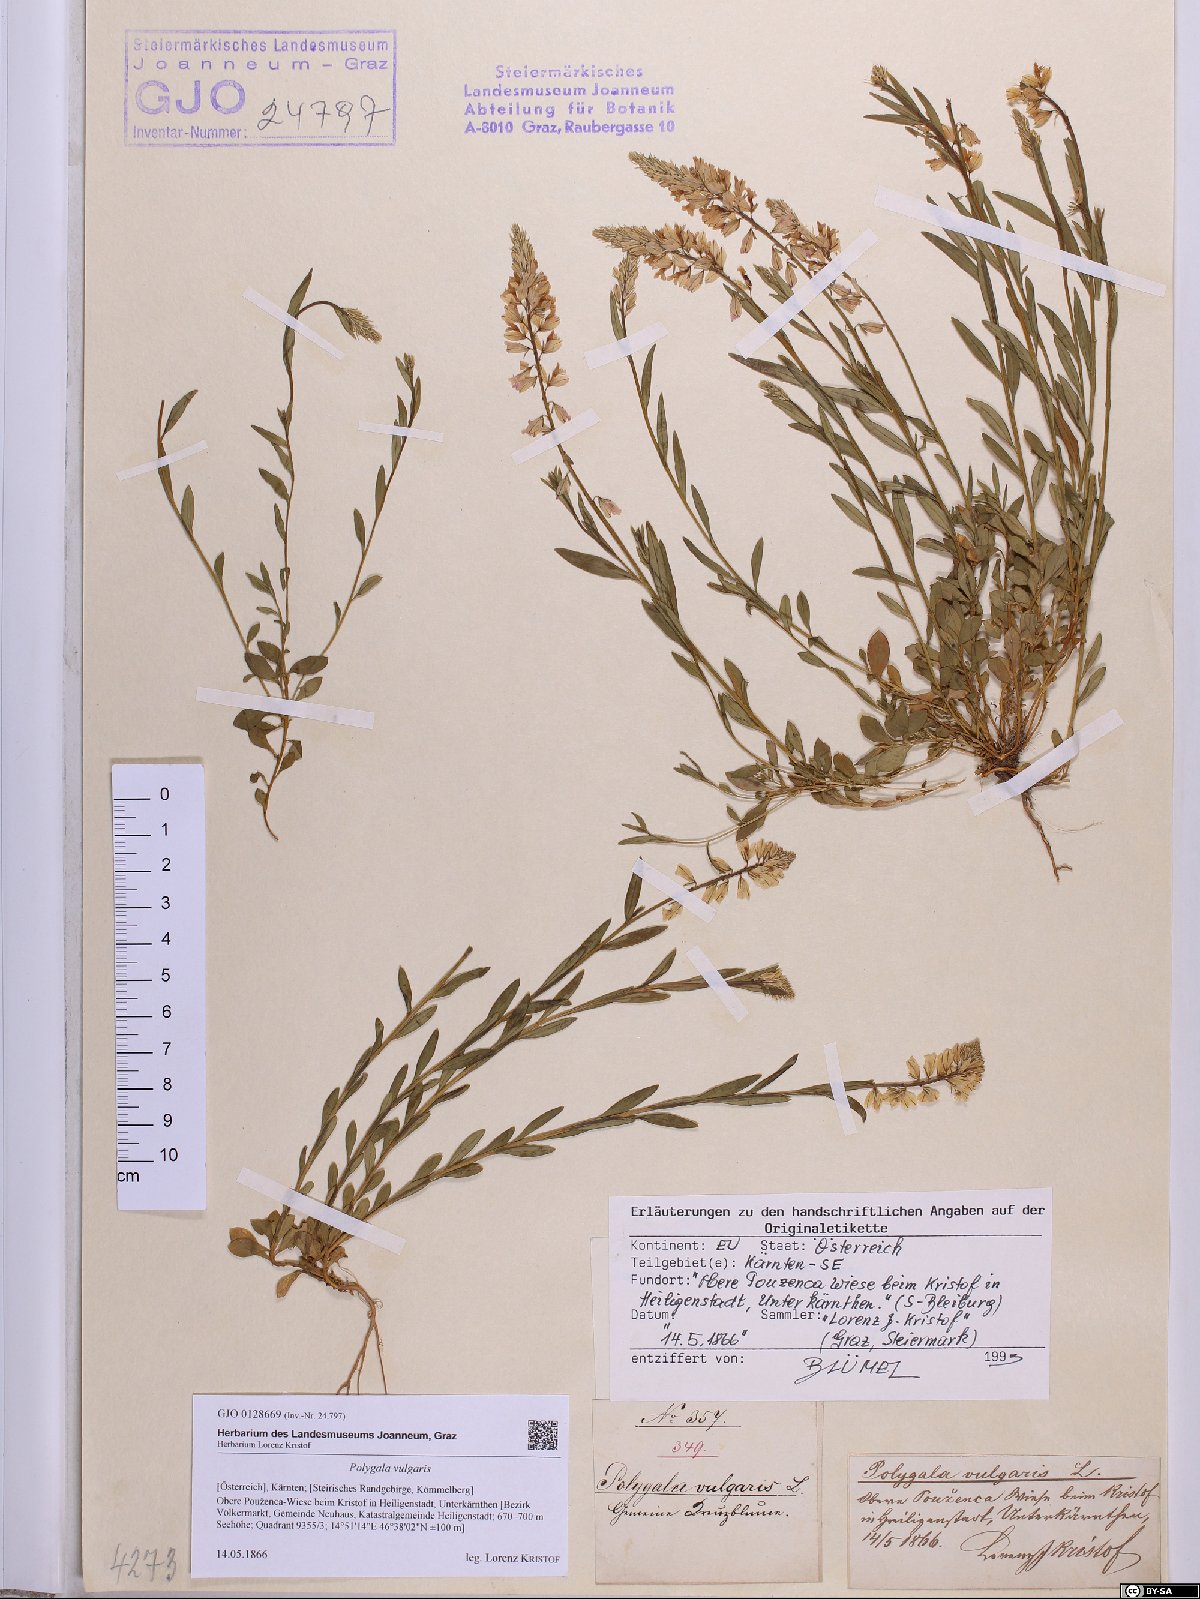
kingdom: Plantae
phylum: Tracheophyta
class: Magnoliopsida
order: Fabales
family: Polygalaceae
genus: Polygala
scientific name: Polygala vulgaris
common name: Common milkwort
